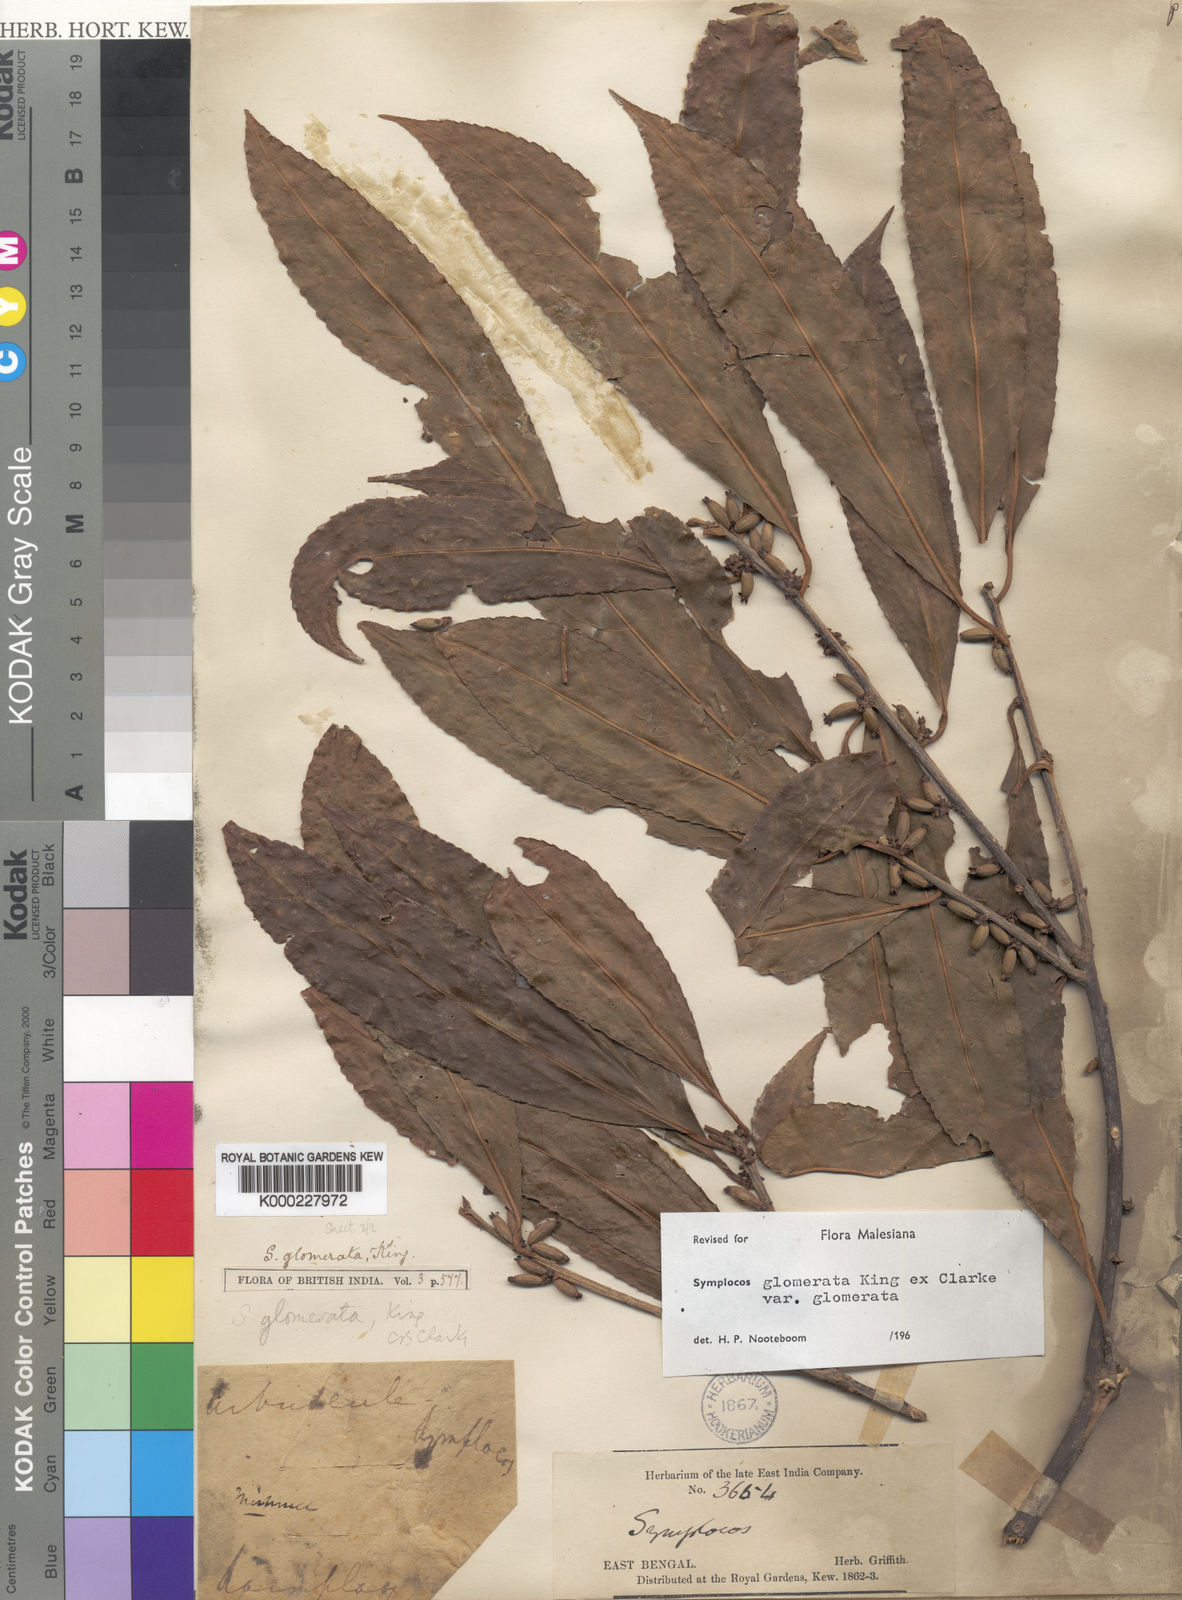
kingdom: Plantae
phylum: Tracheophyta
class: Magnoliopsida
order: Ericales
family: Symplocaceae
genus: Symplocos
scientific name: Symplocos glomerata
